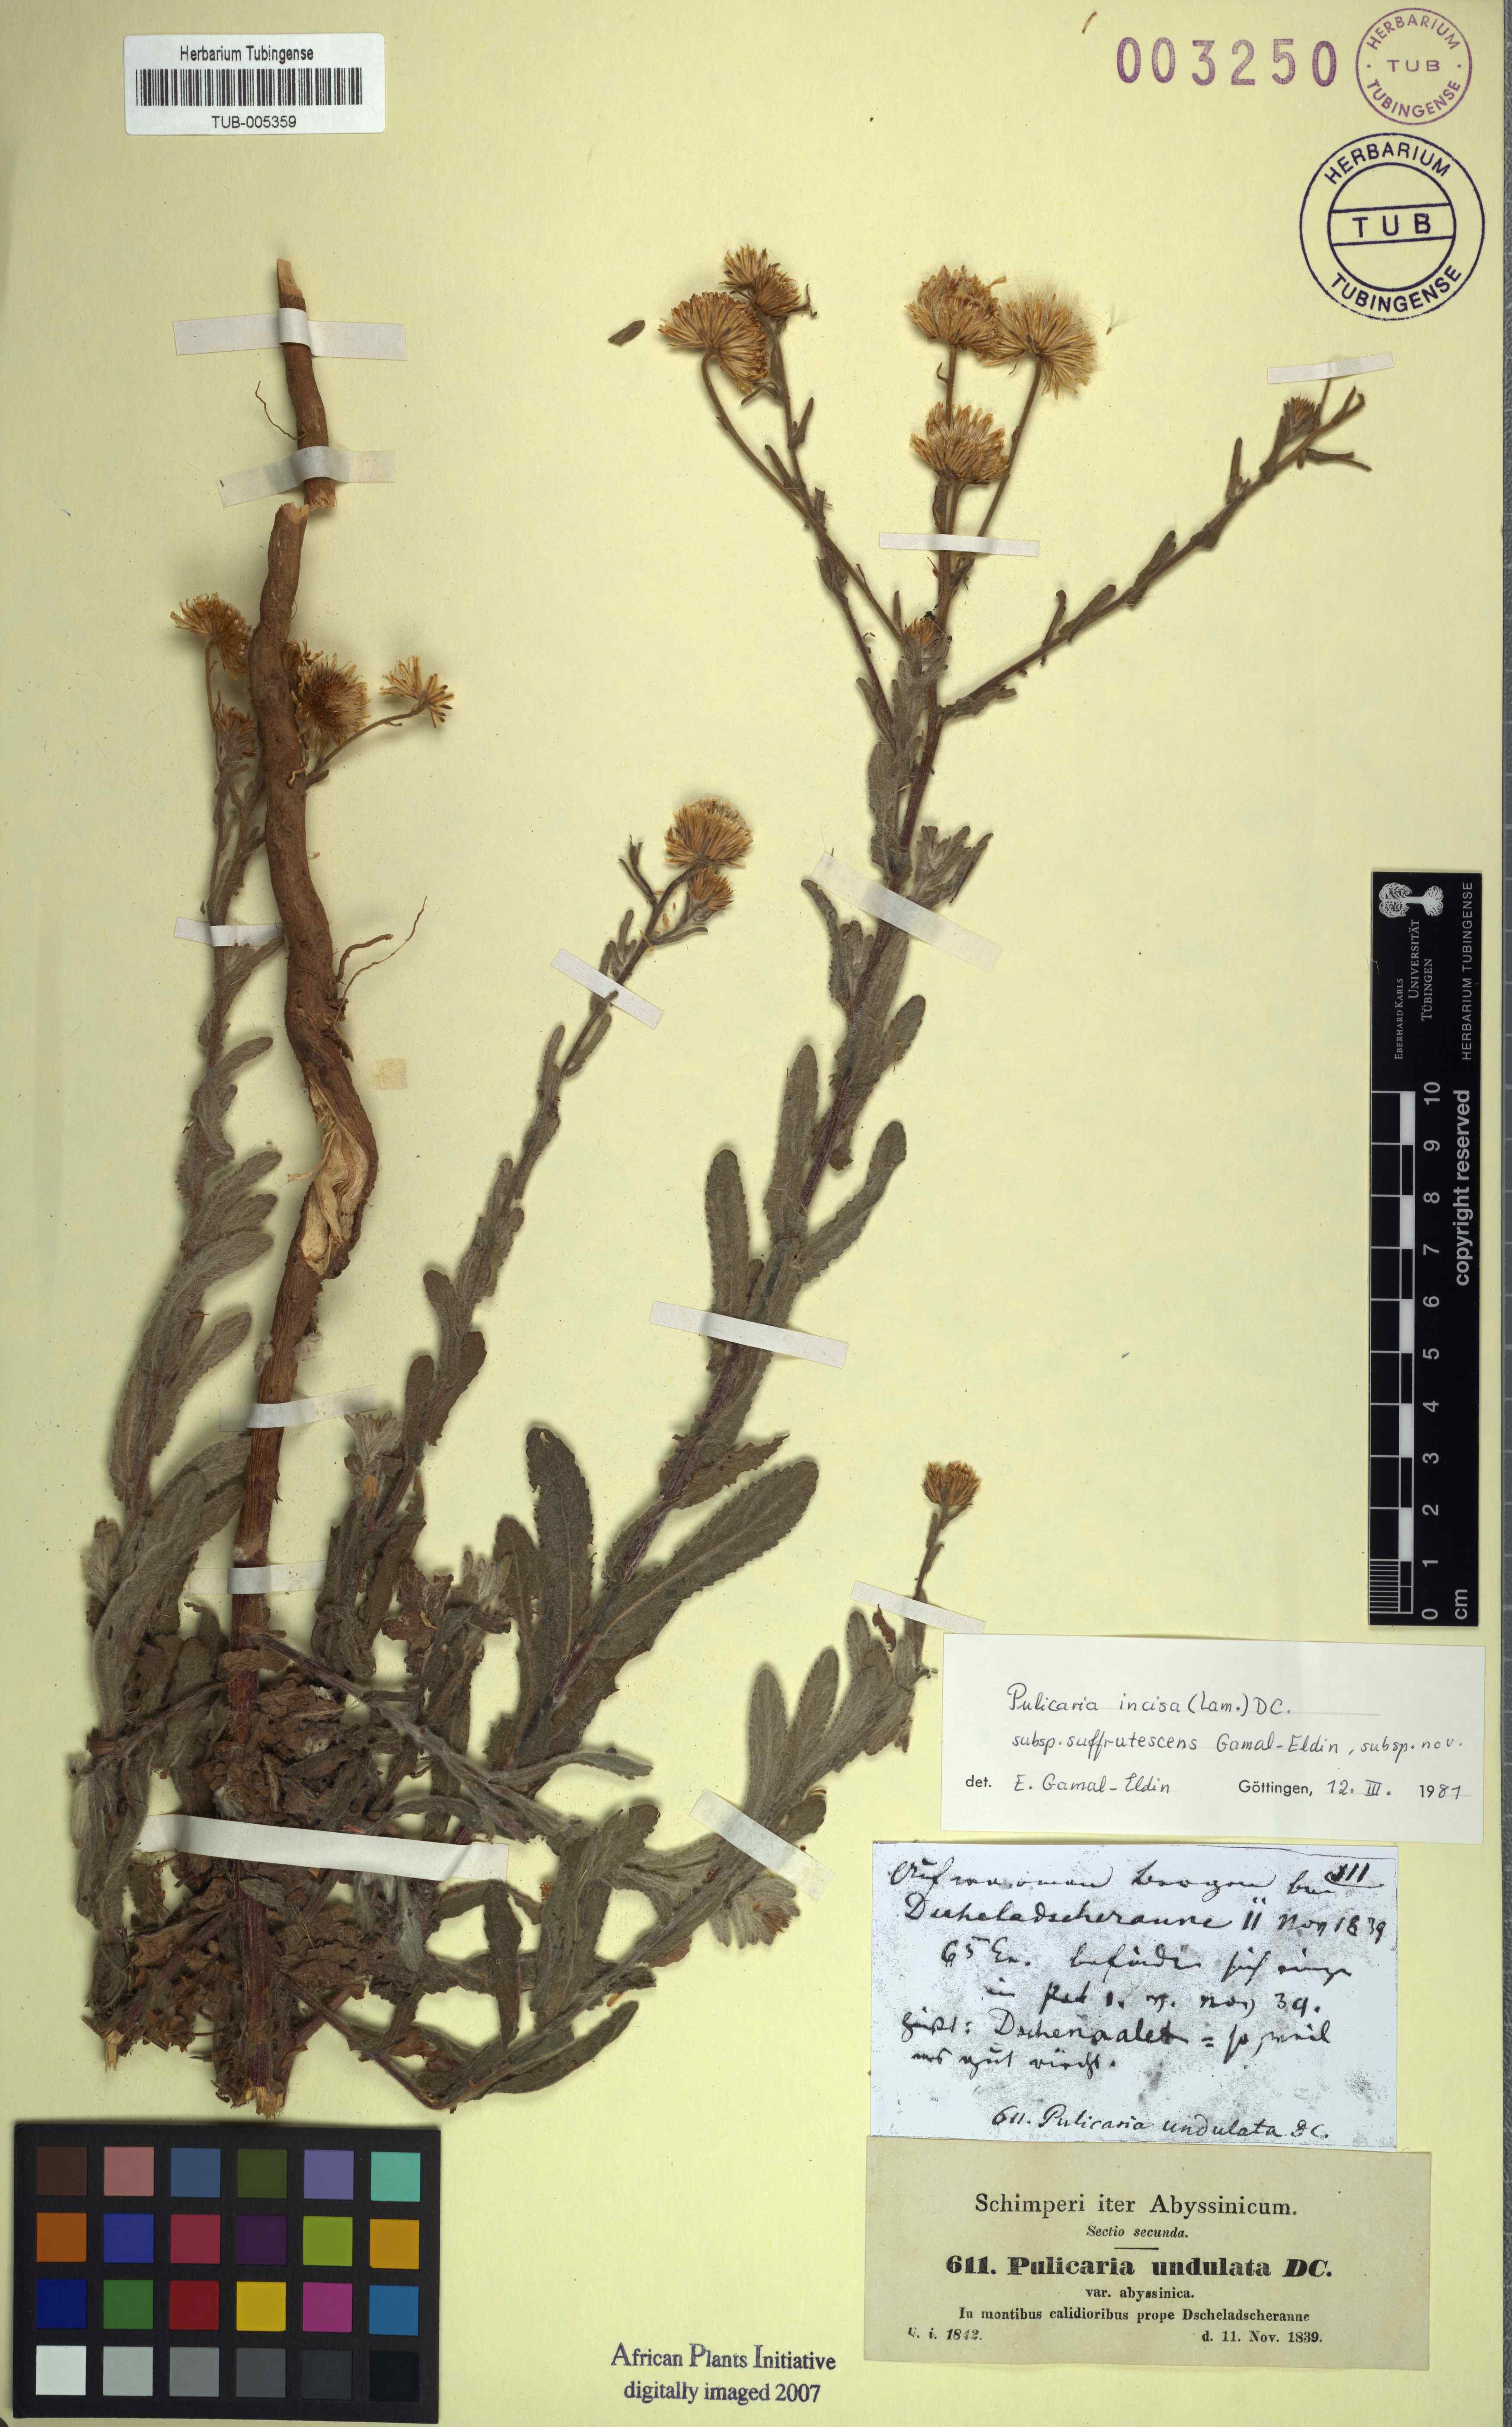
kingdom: Plantae
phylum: Tracheophyta
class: Magnoliopsida
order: Asterales
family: Asteraceae
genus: Pulicaria
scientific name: Pulicaria incisa
